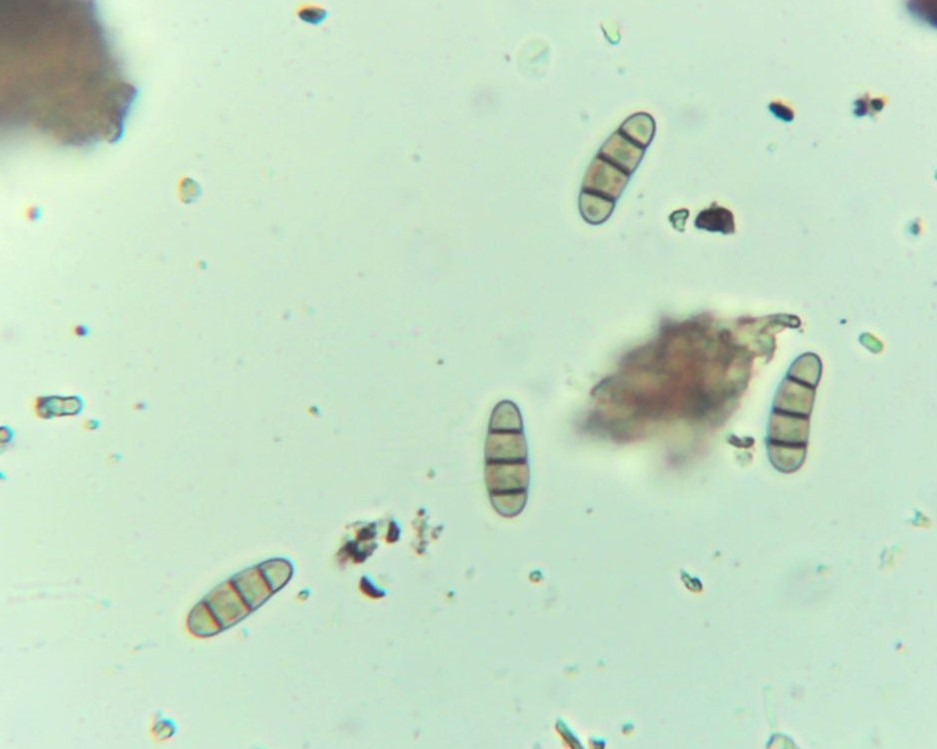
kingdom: Fungi
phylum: Ascomycota
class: Dothideomycetes
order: Hysteriales
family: Hysteriaceae
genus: Hysterium
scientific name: Hysterium
